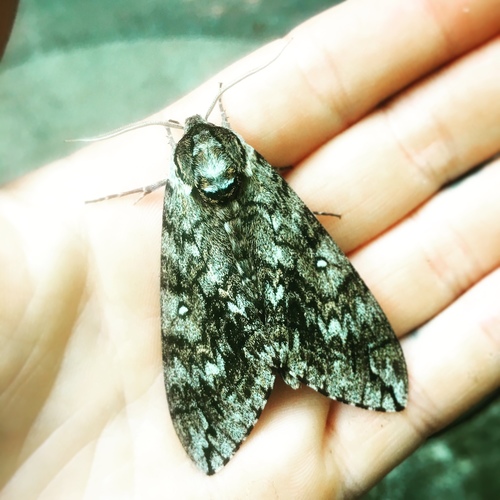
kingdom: Animalia
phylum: Arthropoda
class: Insecta
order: Lepidoptera
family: Sphingidae
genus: Ceratomia
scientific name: Ceratomia undulosa
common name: Waved sphinx
